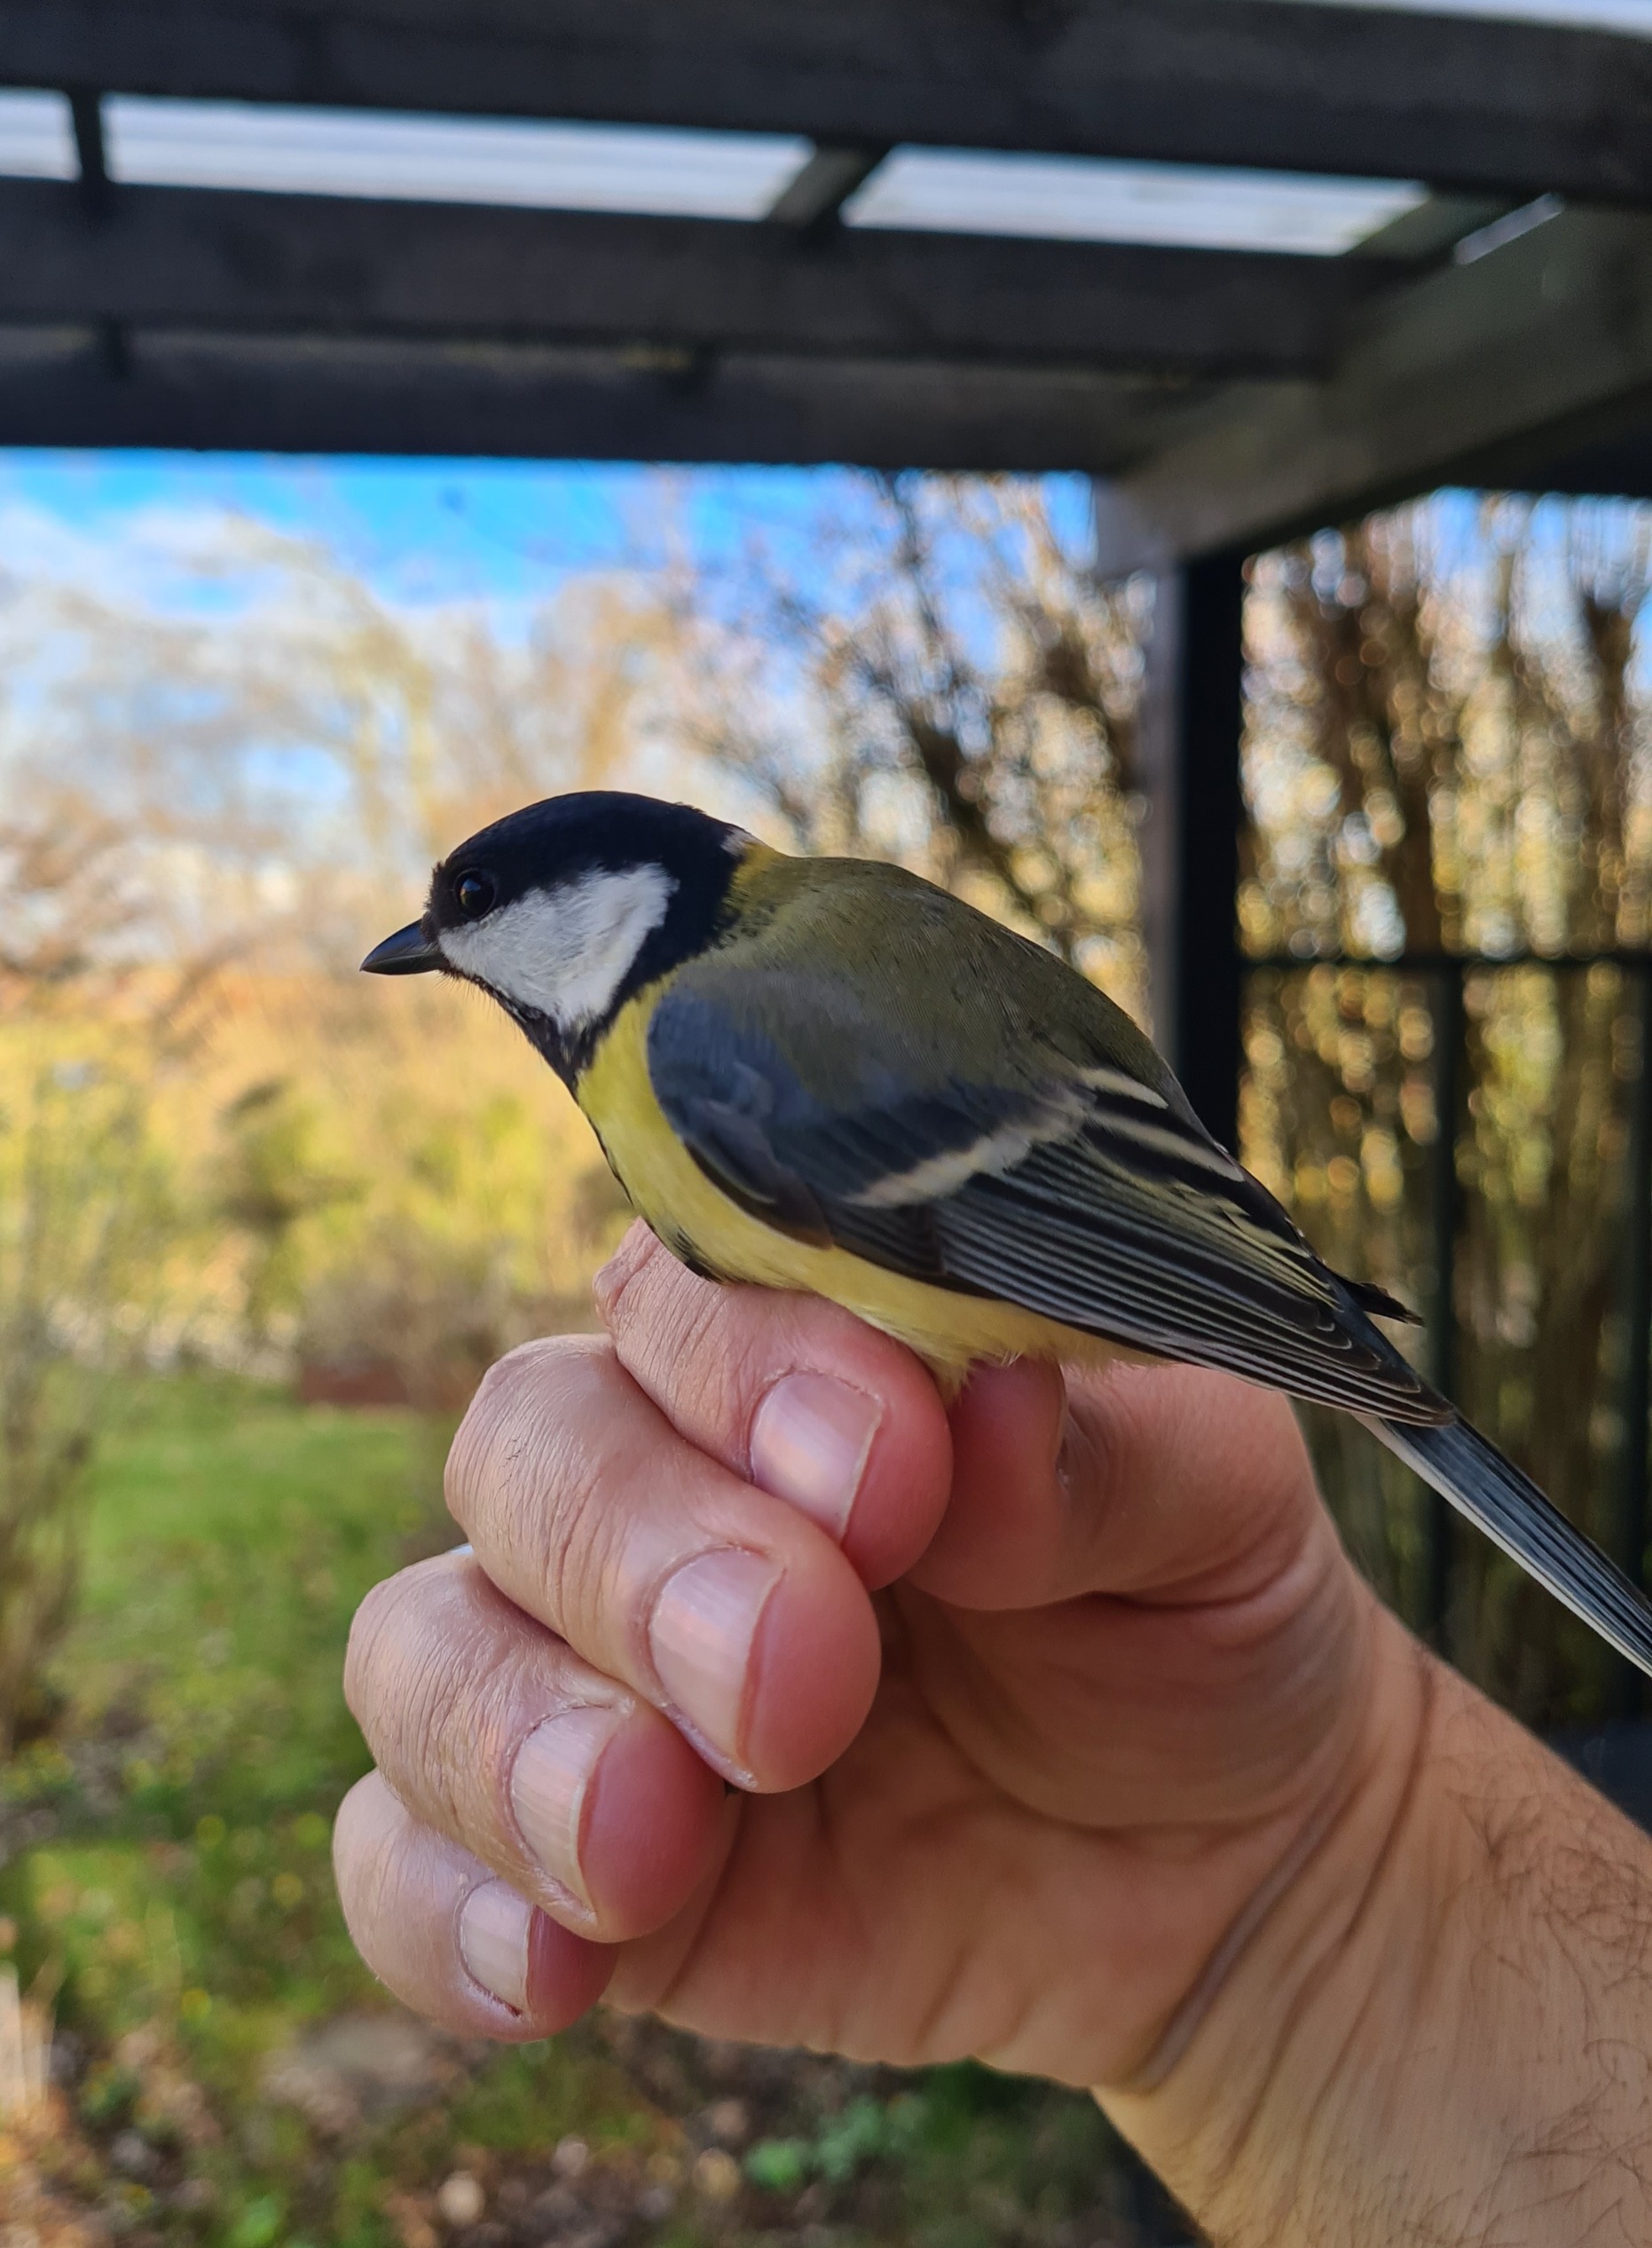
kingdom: Animalia
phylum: Chordata
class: Aves
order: Passeriformes
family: Paridae
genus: Parus
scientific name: Parus major
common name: Musvit
